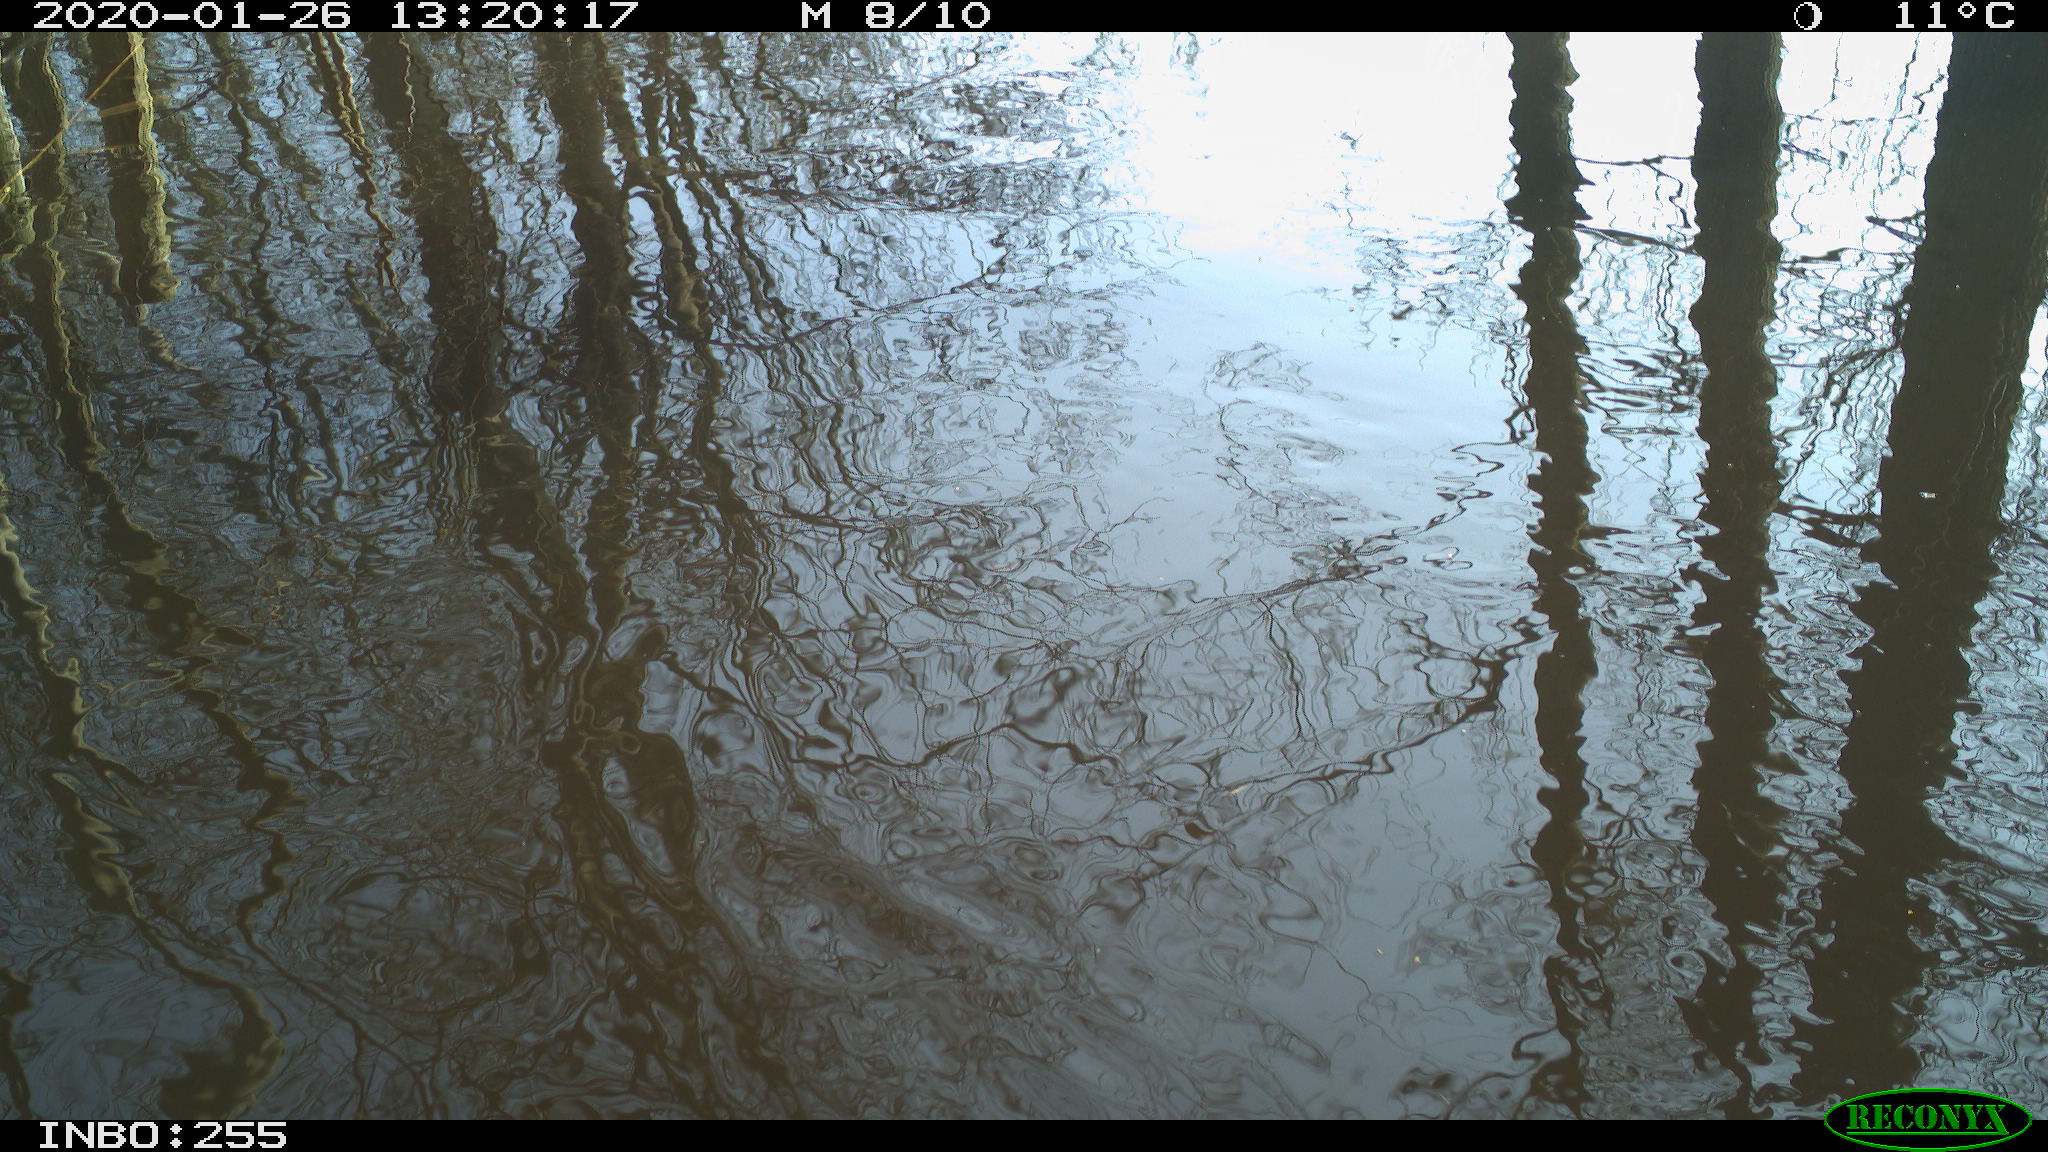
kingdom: Animalia
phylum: Chordata
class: Aves
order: Gruiformes
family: Rallidae
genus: Fulica
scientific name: Fulica atra
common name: Eurasian coot
